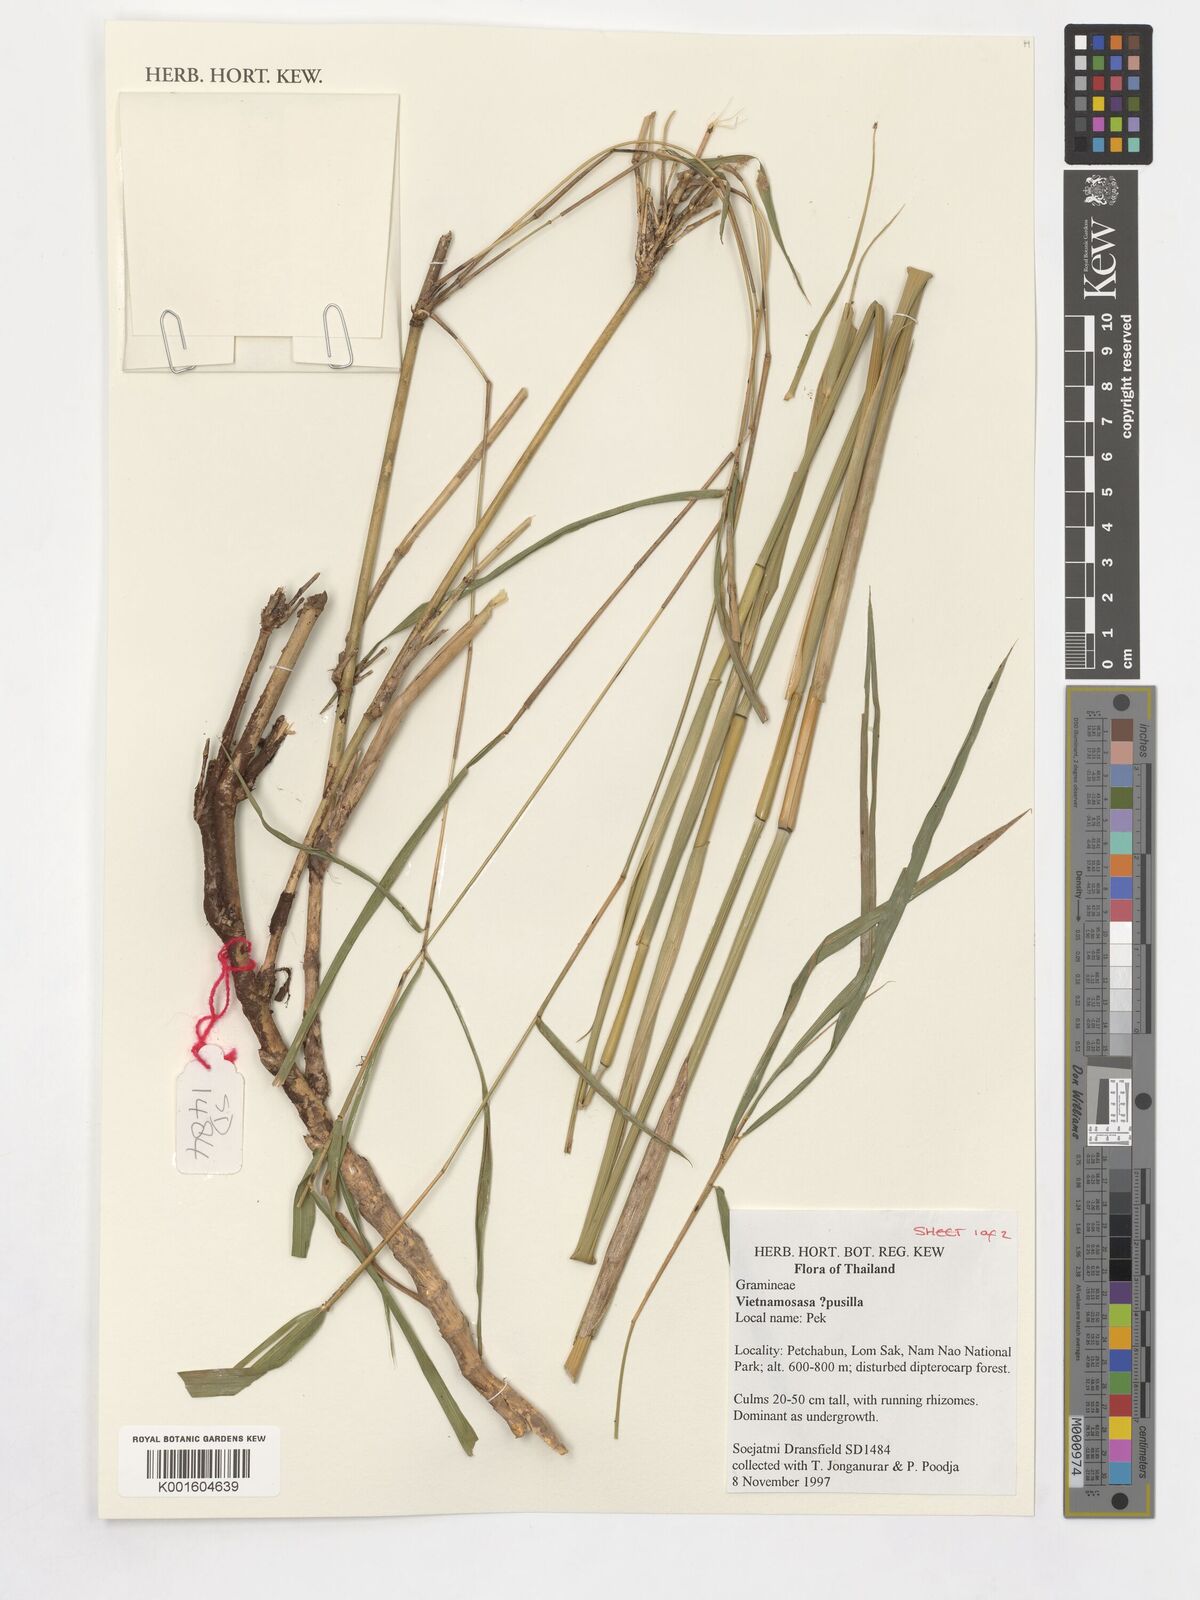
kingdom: Plantae
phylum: Tracheophyta
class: Liliopsida
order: Poales
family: Poaceae
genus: Vietnamosasa
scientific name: Vietnamosasa pusilla
